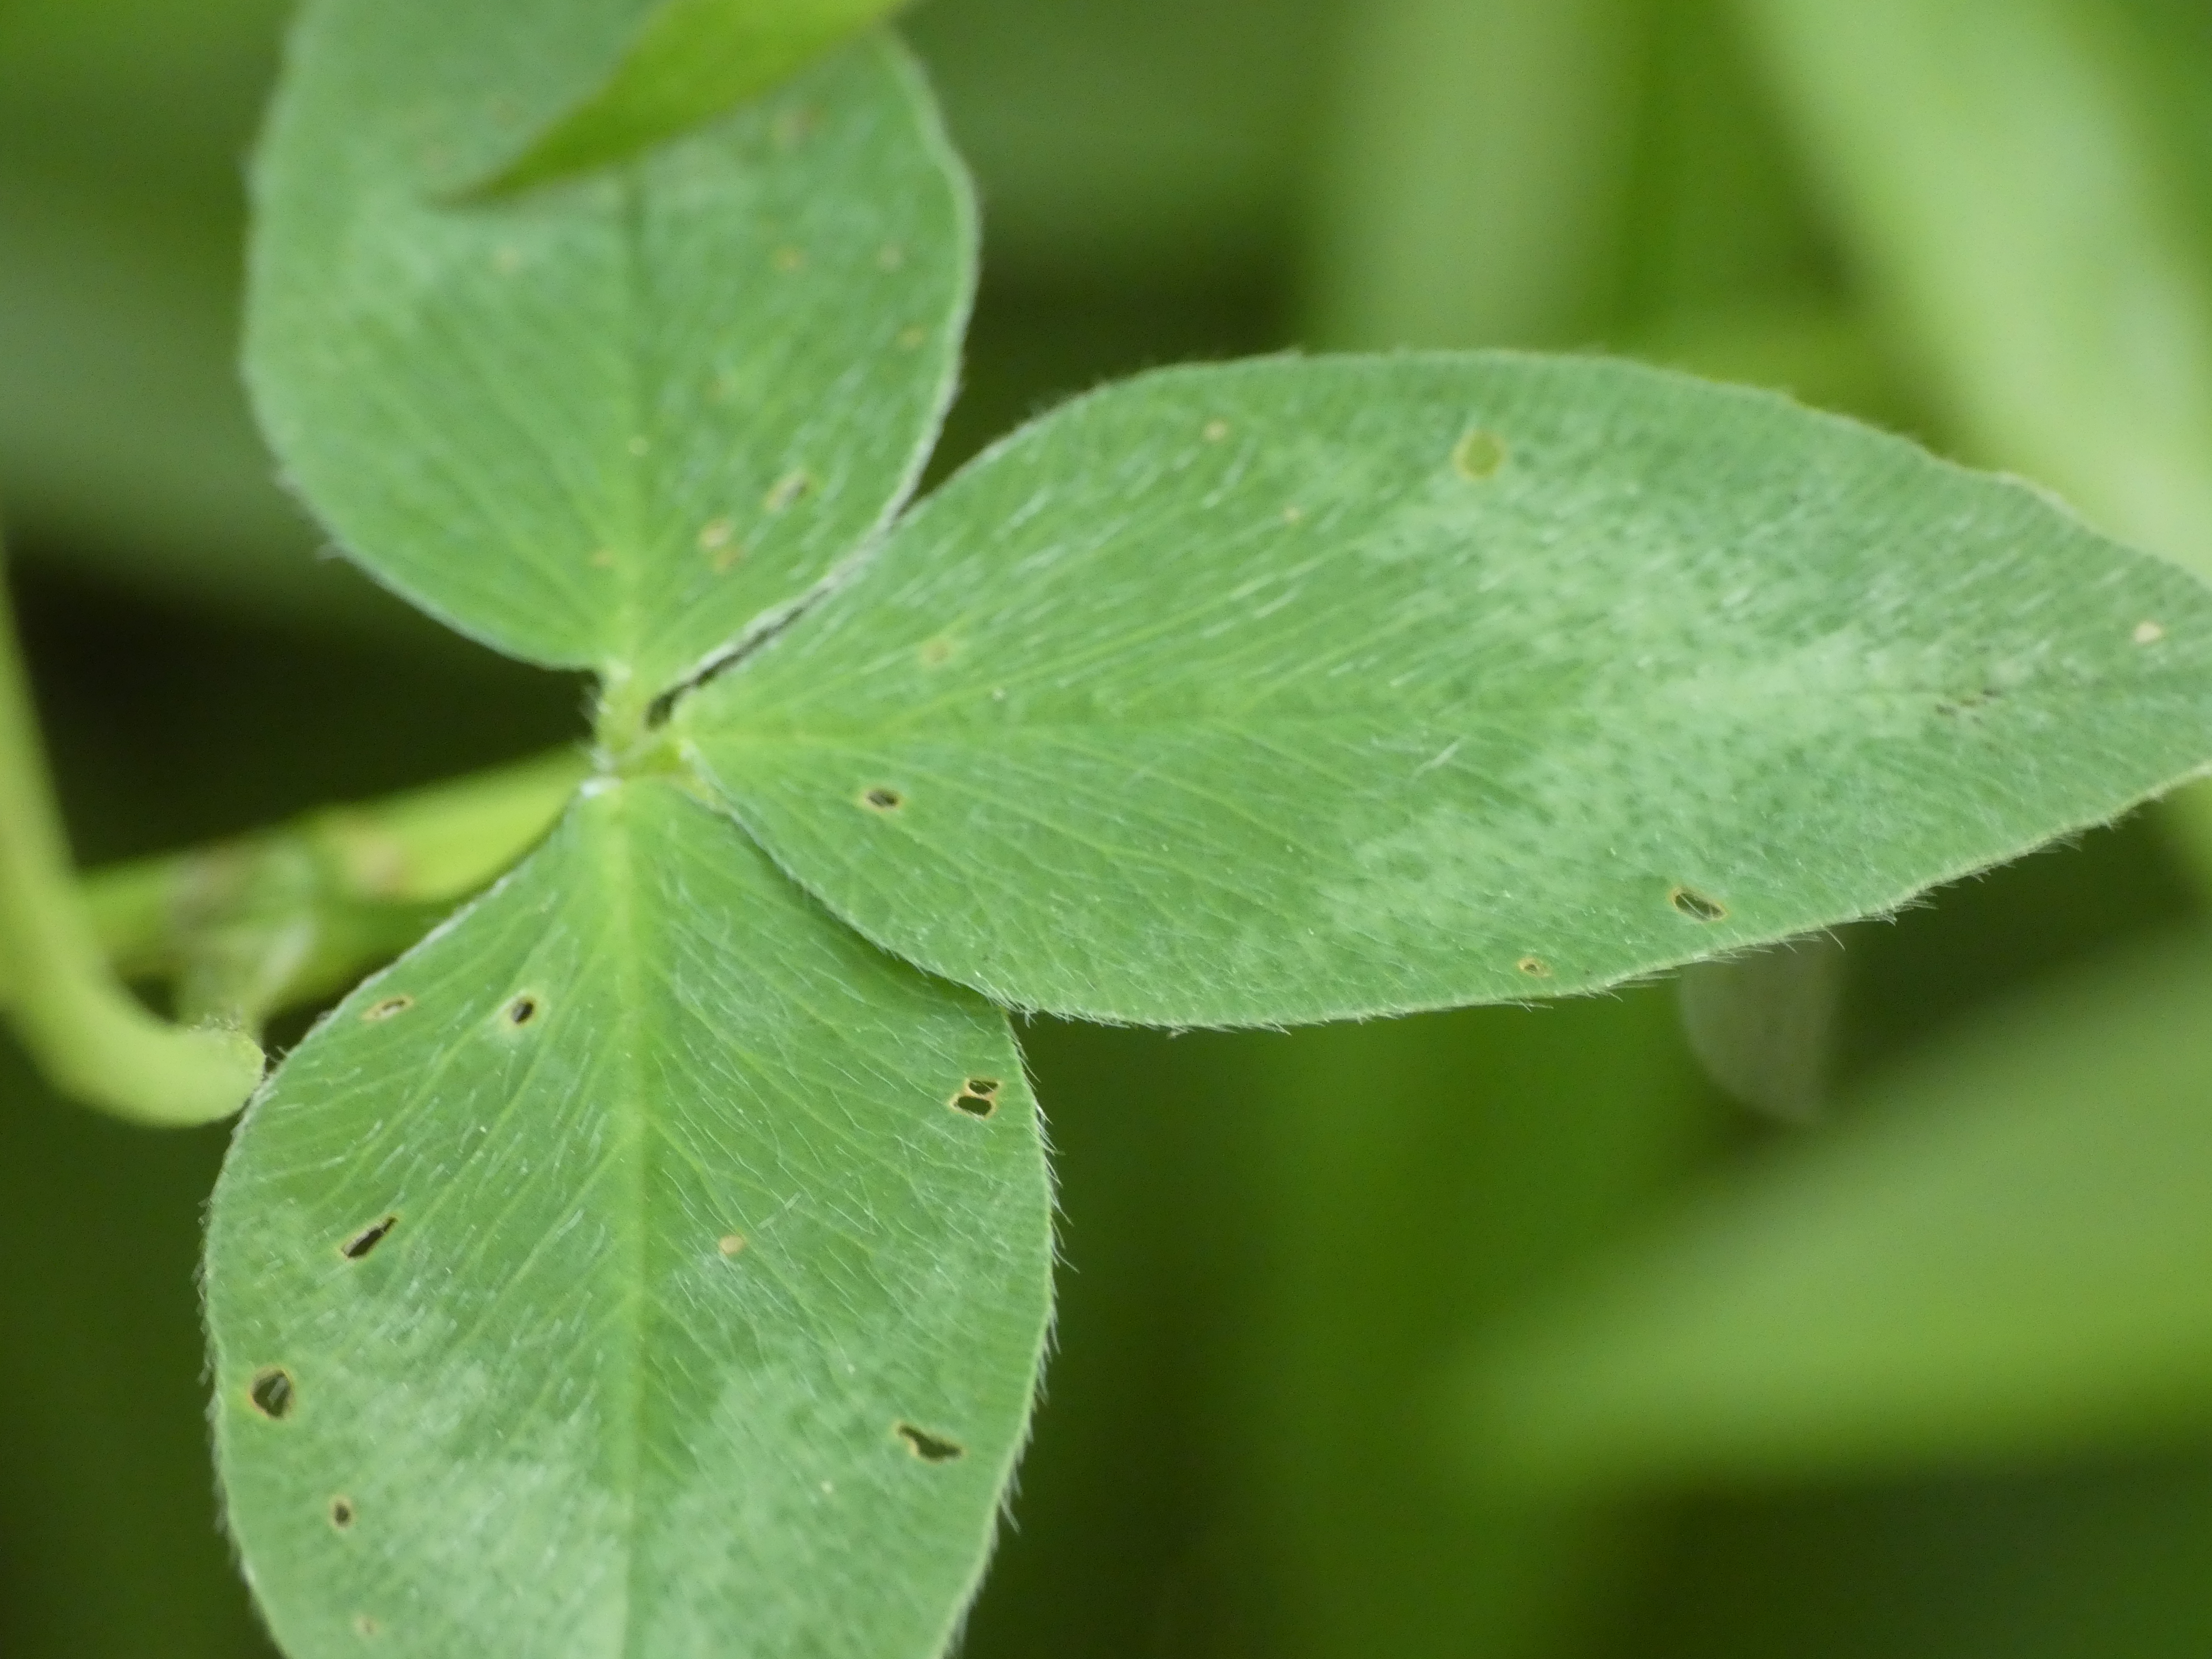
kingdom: Plantae
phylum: Tracheophyta
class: Magnoliopsida
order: Fabales
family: Fabaceae
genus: Trifolium
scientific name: Trifolium pratense
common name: Rød-kløver
